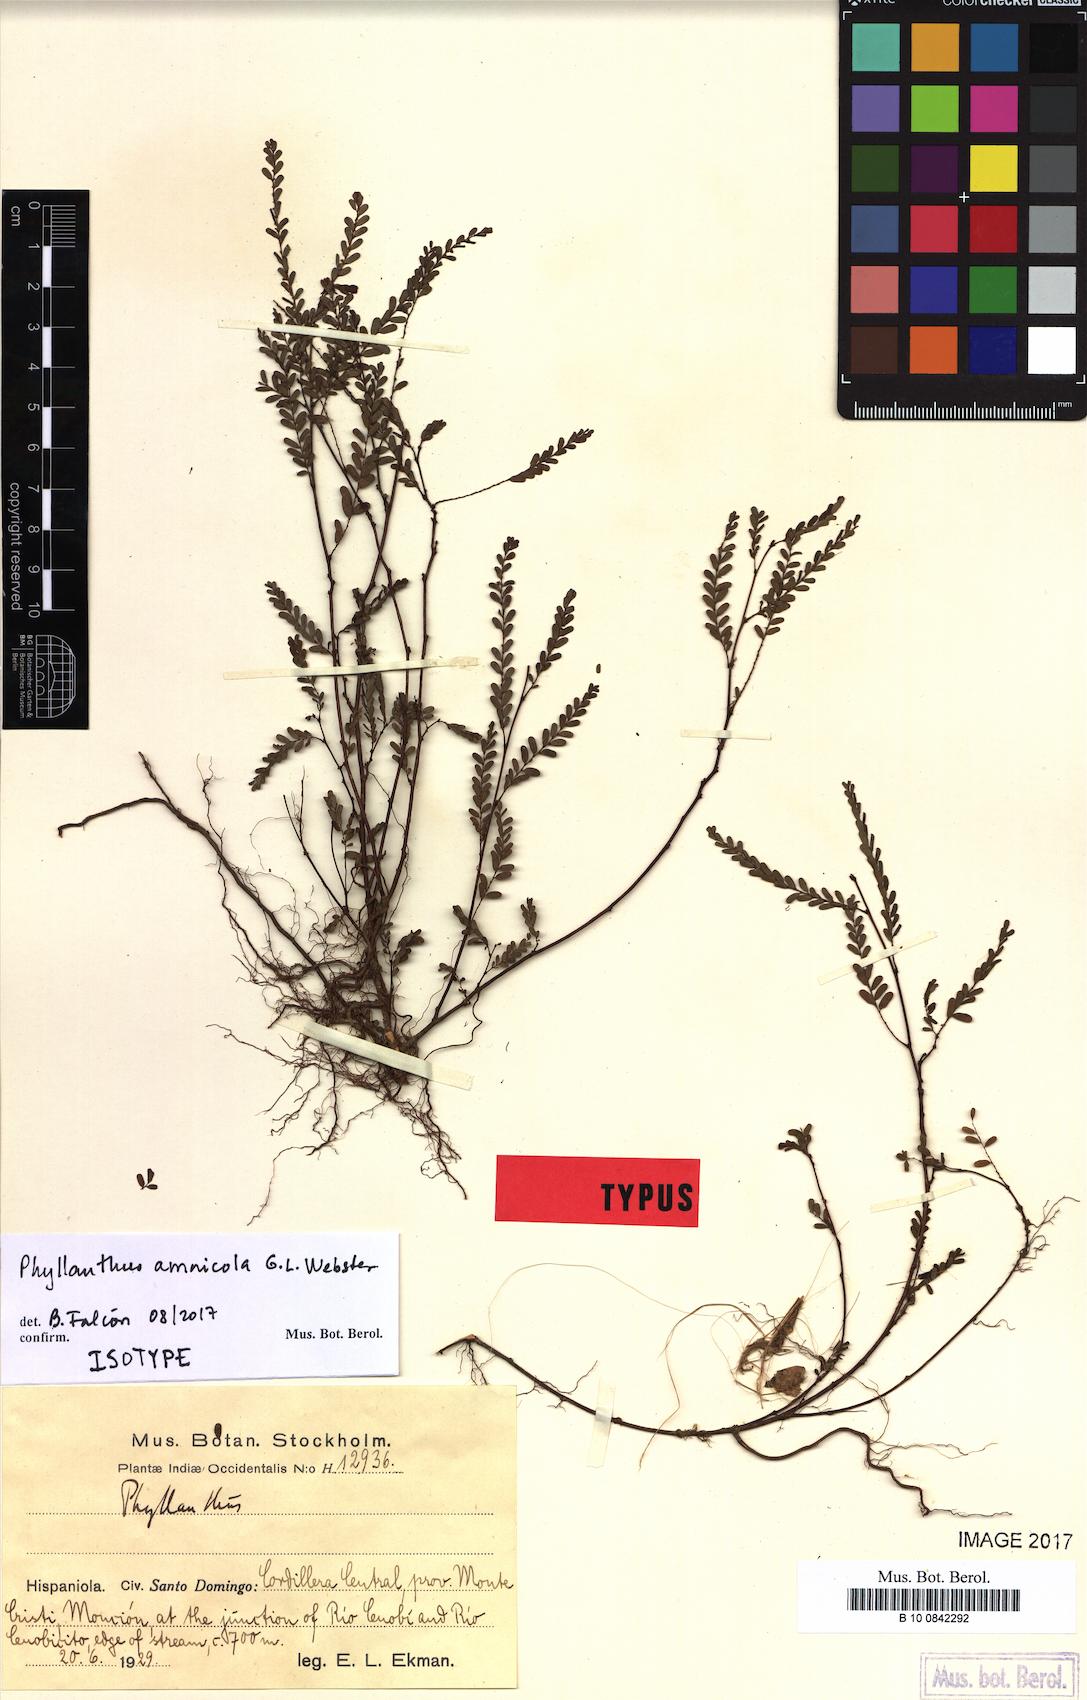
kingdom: Plantae
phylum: Tracheophyta
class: Magnoliopsida
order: Malpighiales
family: Phyllanthaceae
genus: Phyllanthus
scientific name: Phyllanthus amnicola
